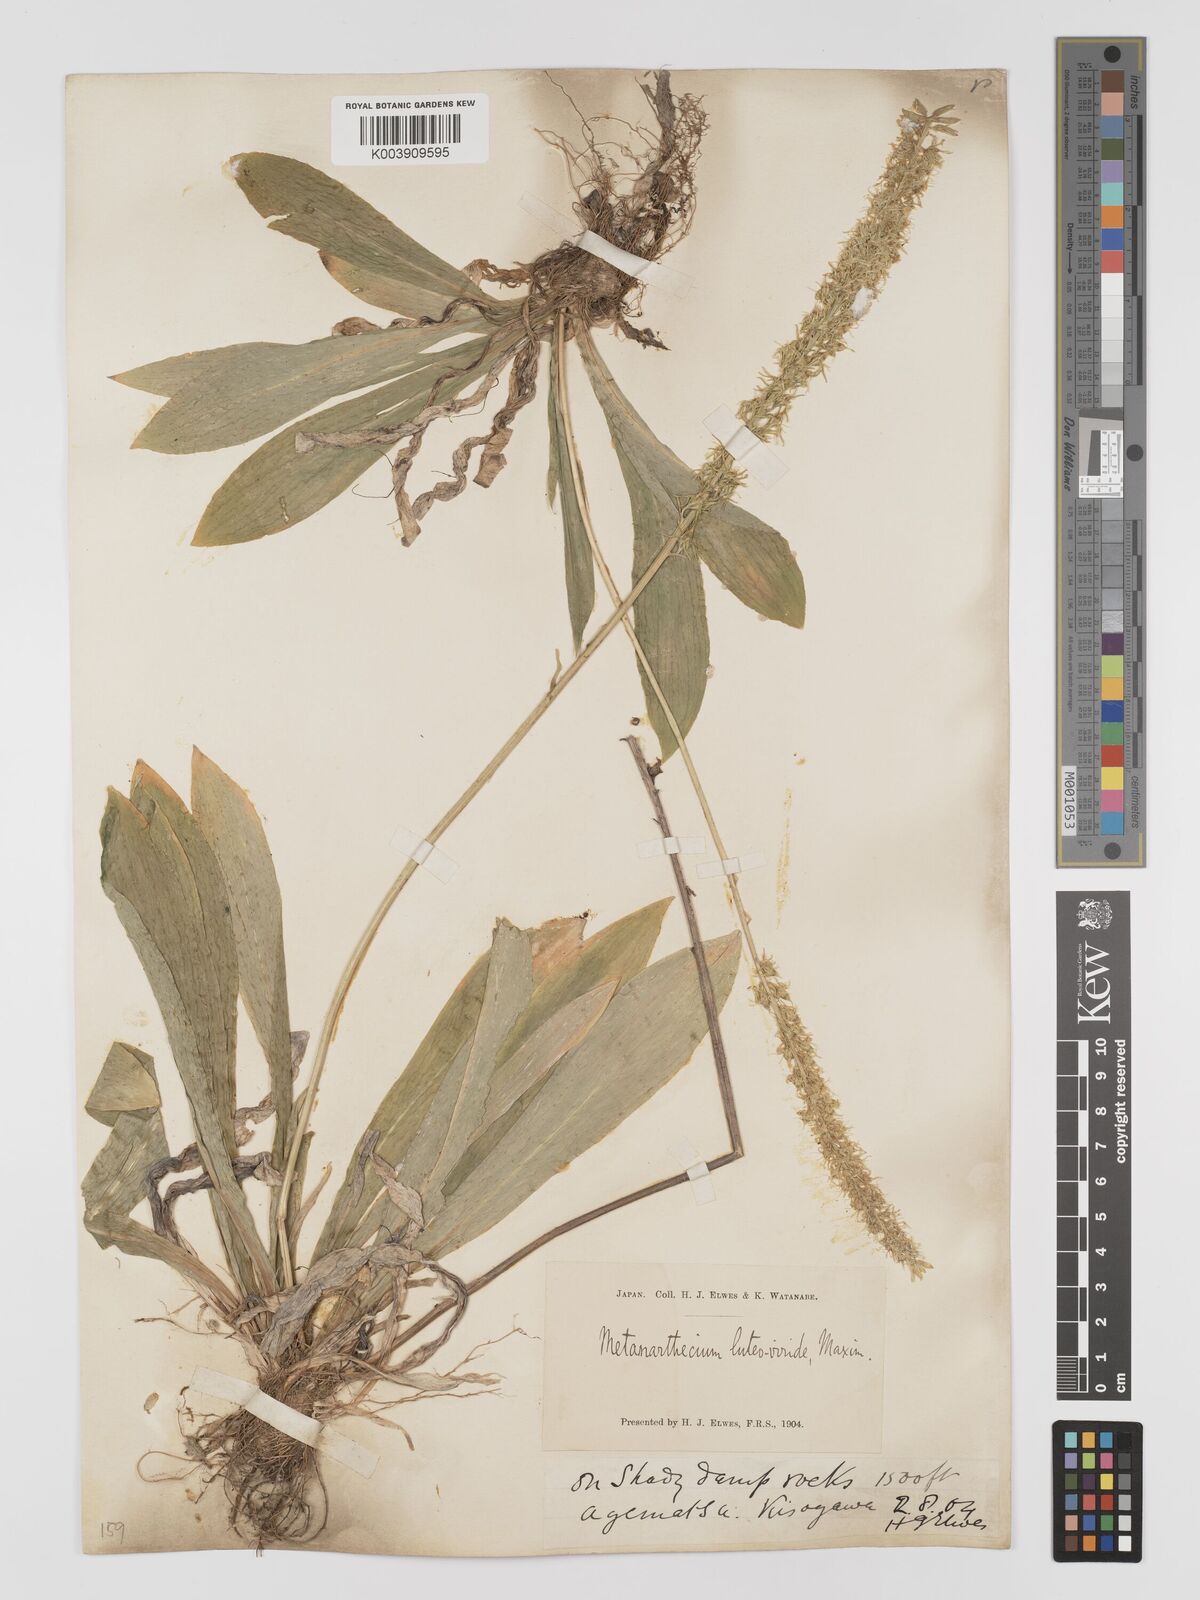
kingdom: Plantae
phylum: Tracheophyta
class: Liliopsida
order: Dioscoreales
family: Nartheciaceae
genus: Metanarthecium
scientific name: Metanarthecium luteoviride
